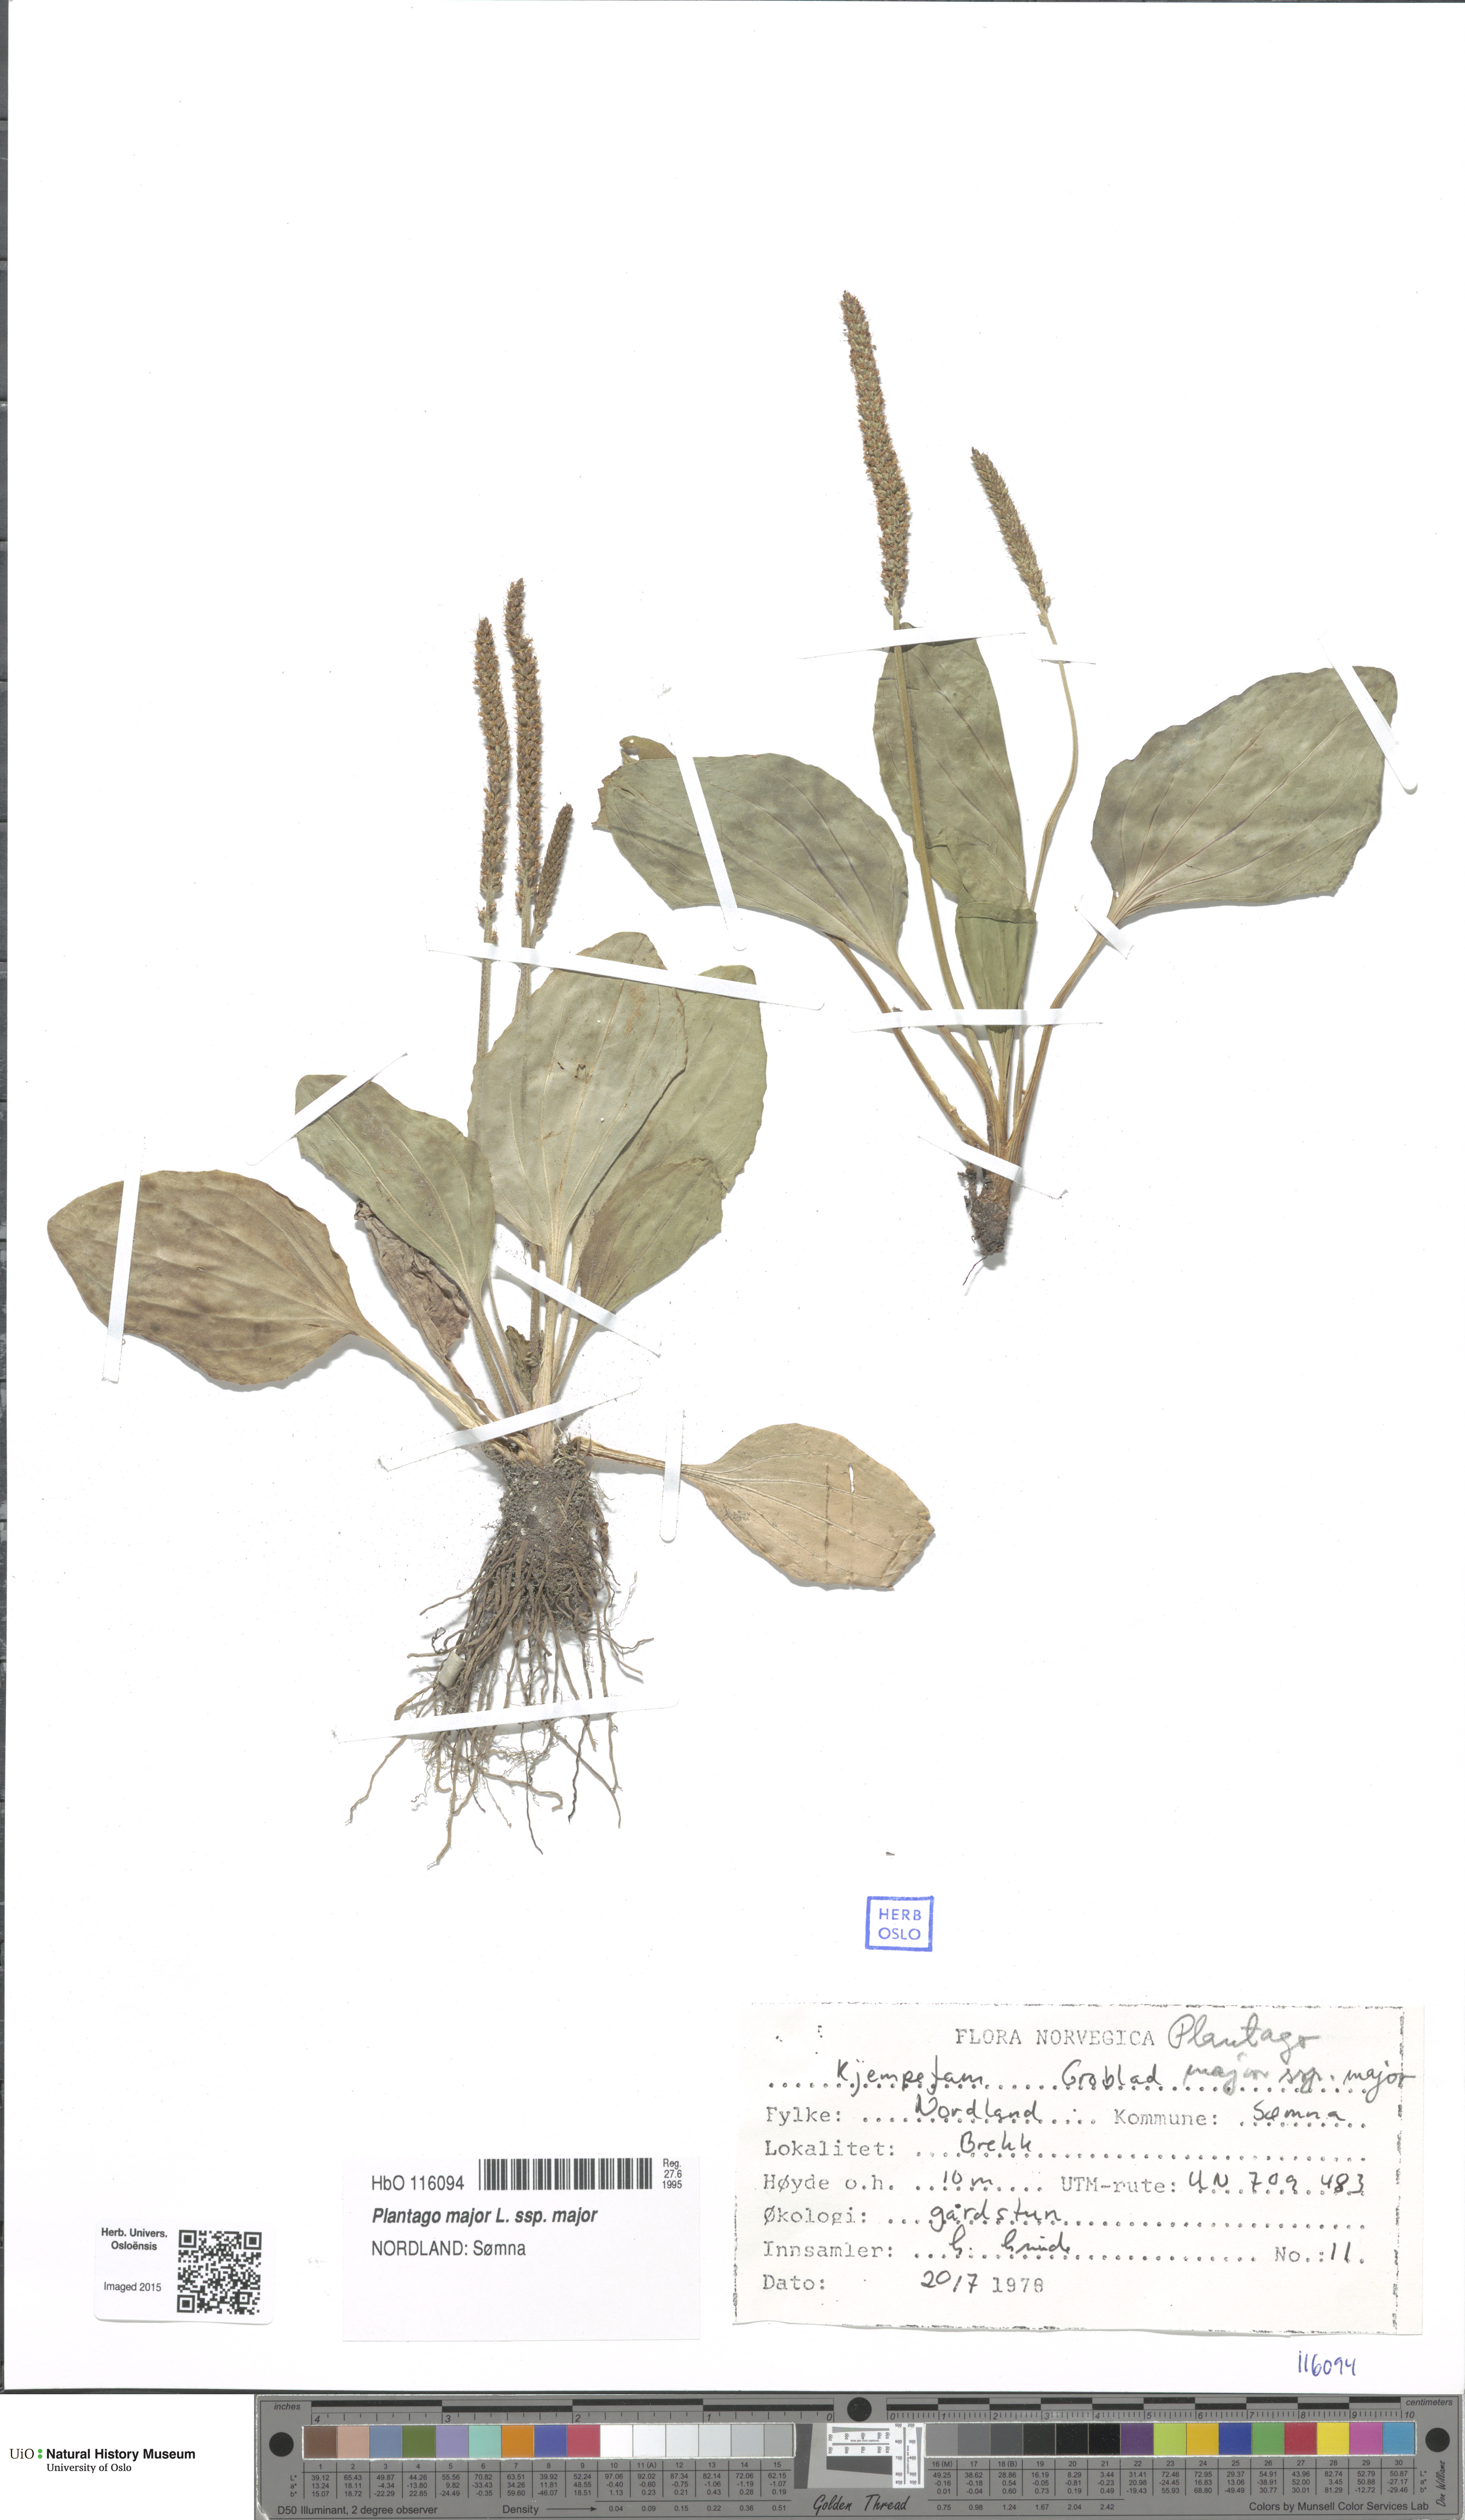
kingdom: Plantae
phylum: Tracheophyta
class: Magnoliopsida
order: Lamiales
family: Plantaginaceae
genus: Plantago
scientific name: Plantago major
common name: Common plantain
